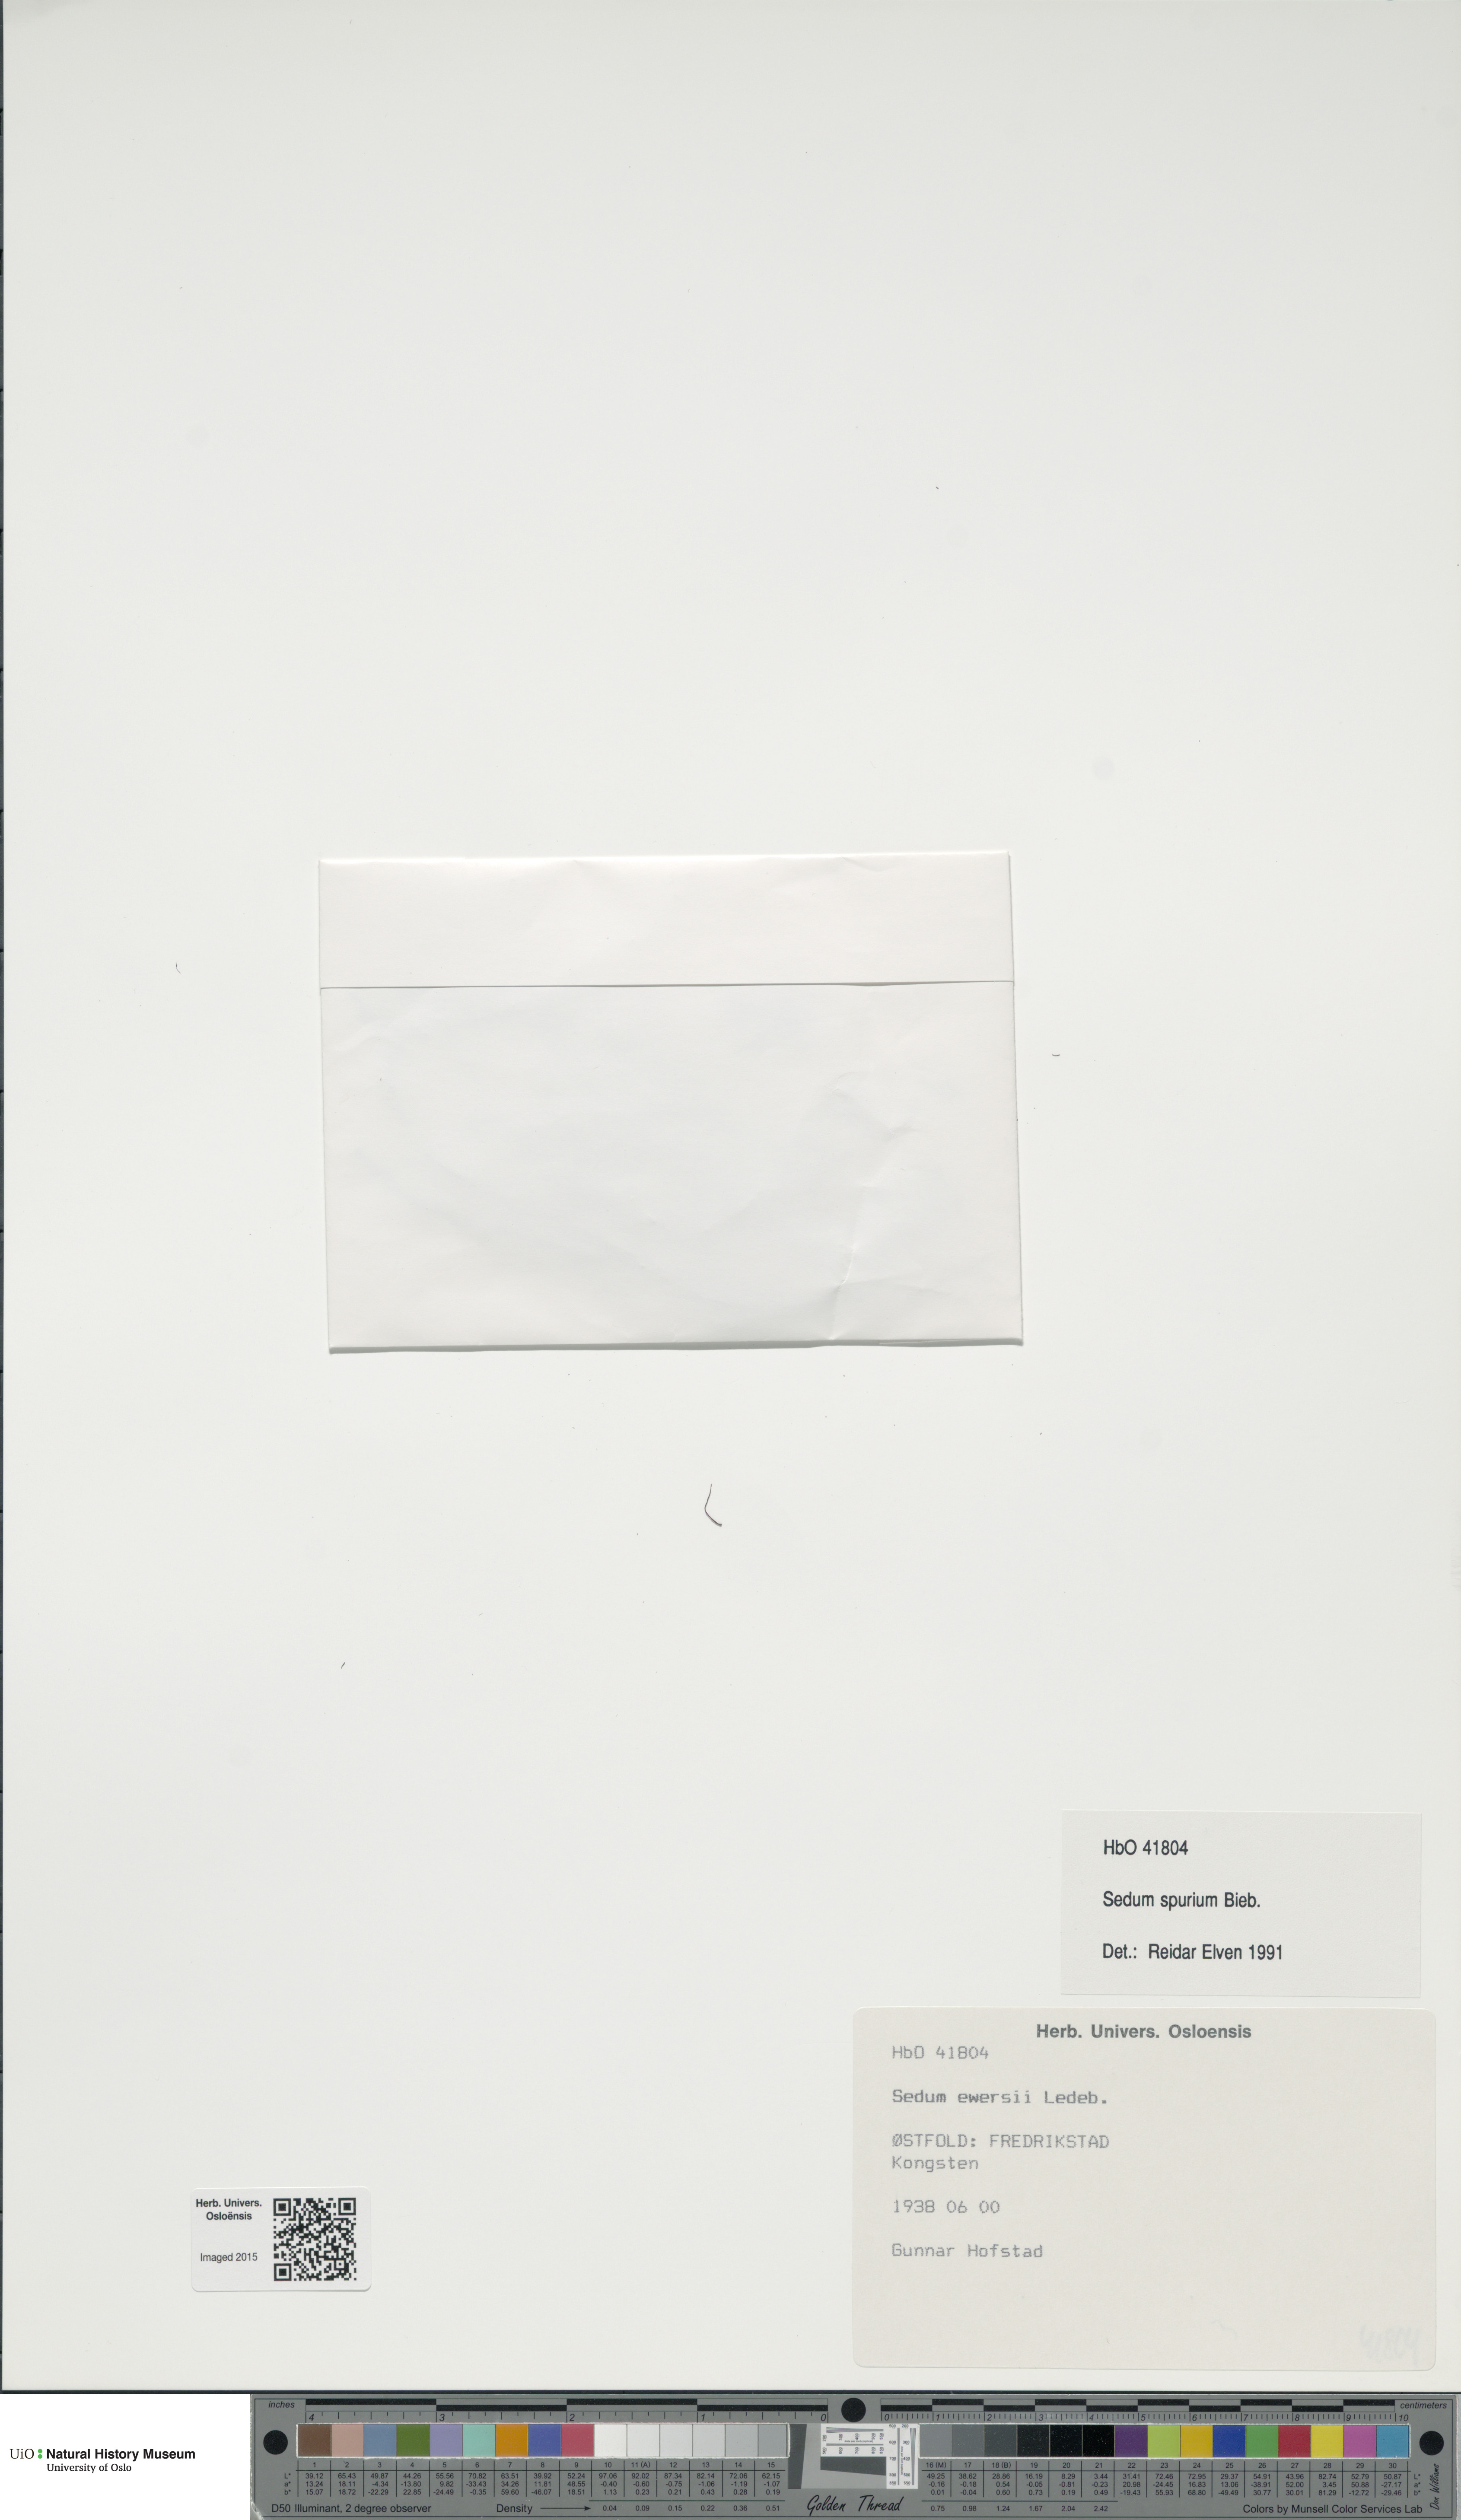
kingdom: Plantae
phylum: Tracheophyta
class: Magnoliopsida
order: Saxifragales
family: Crassulaceae
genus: Phedimus
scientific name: Phedimus spurius
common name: Caucasian stonecrop
